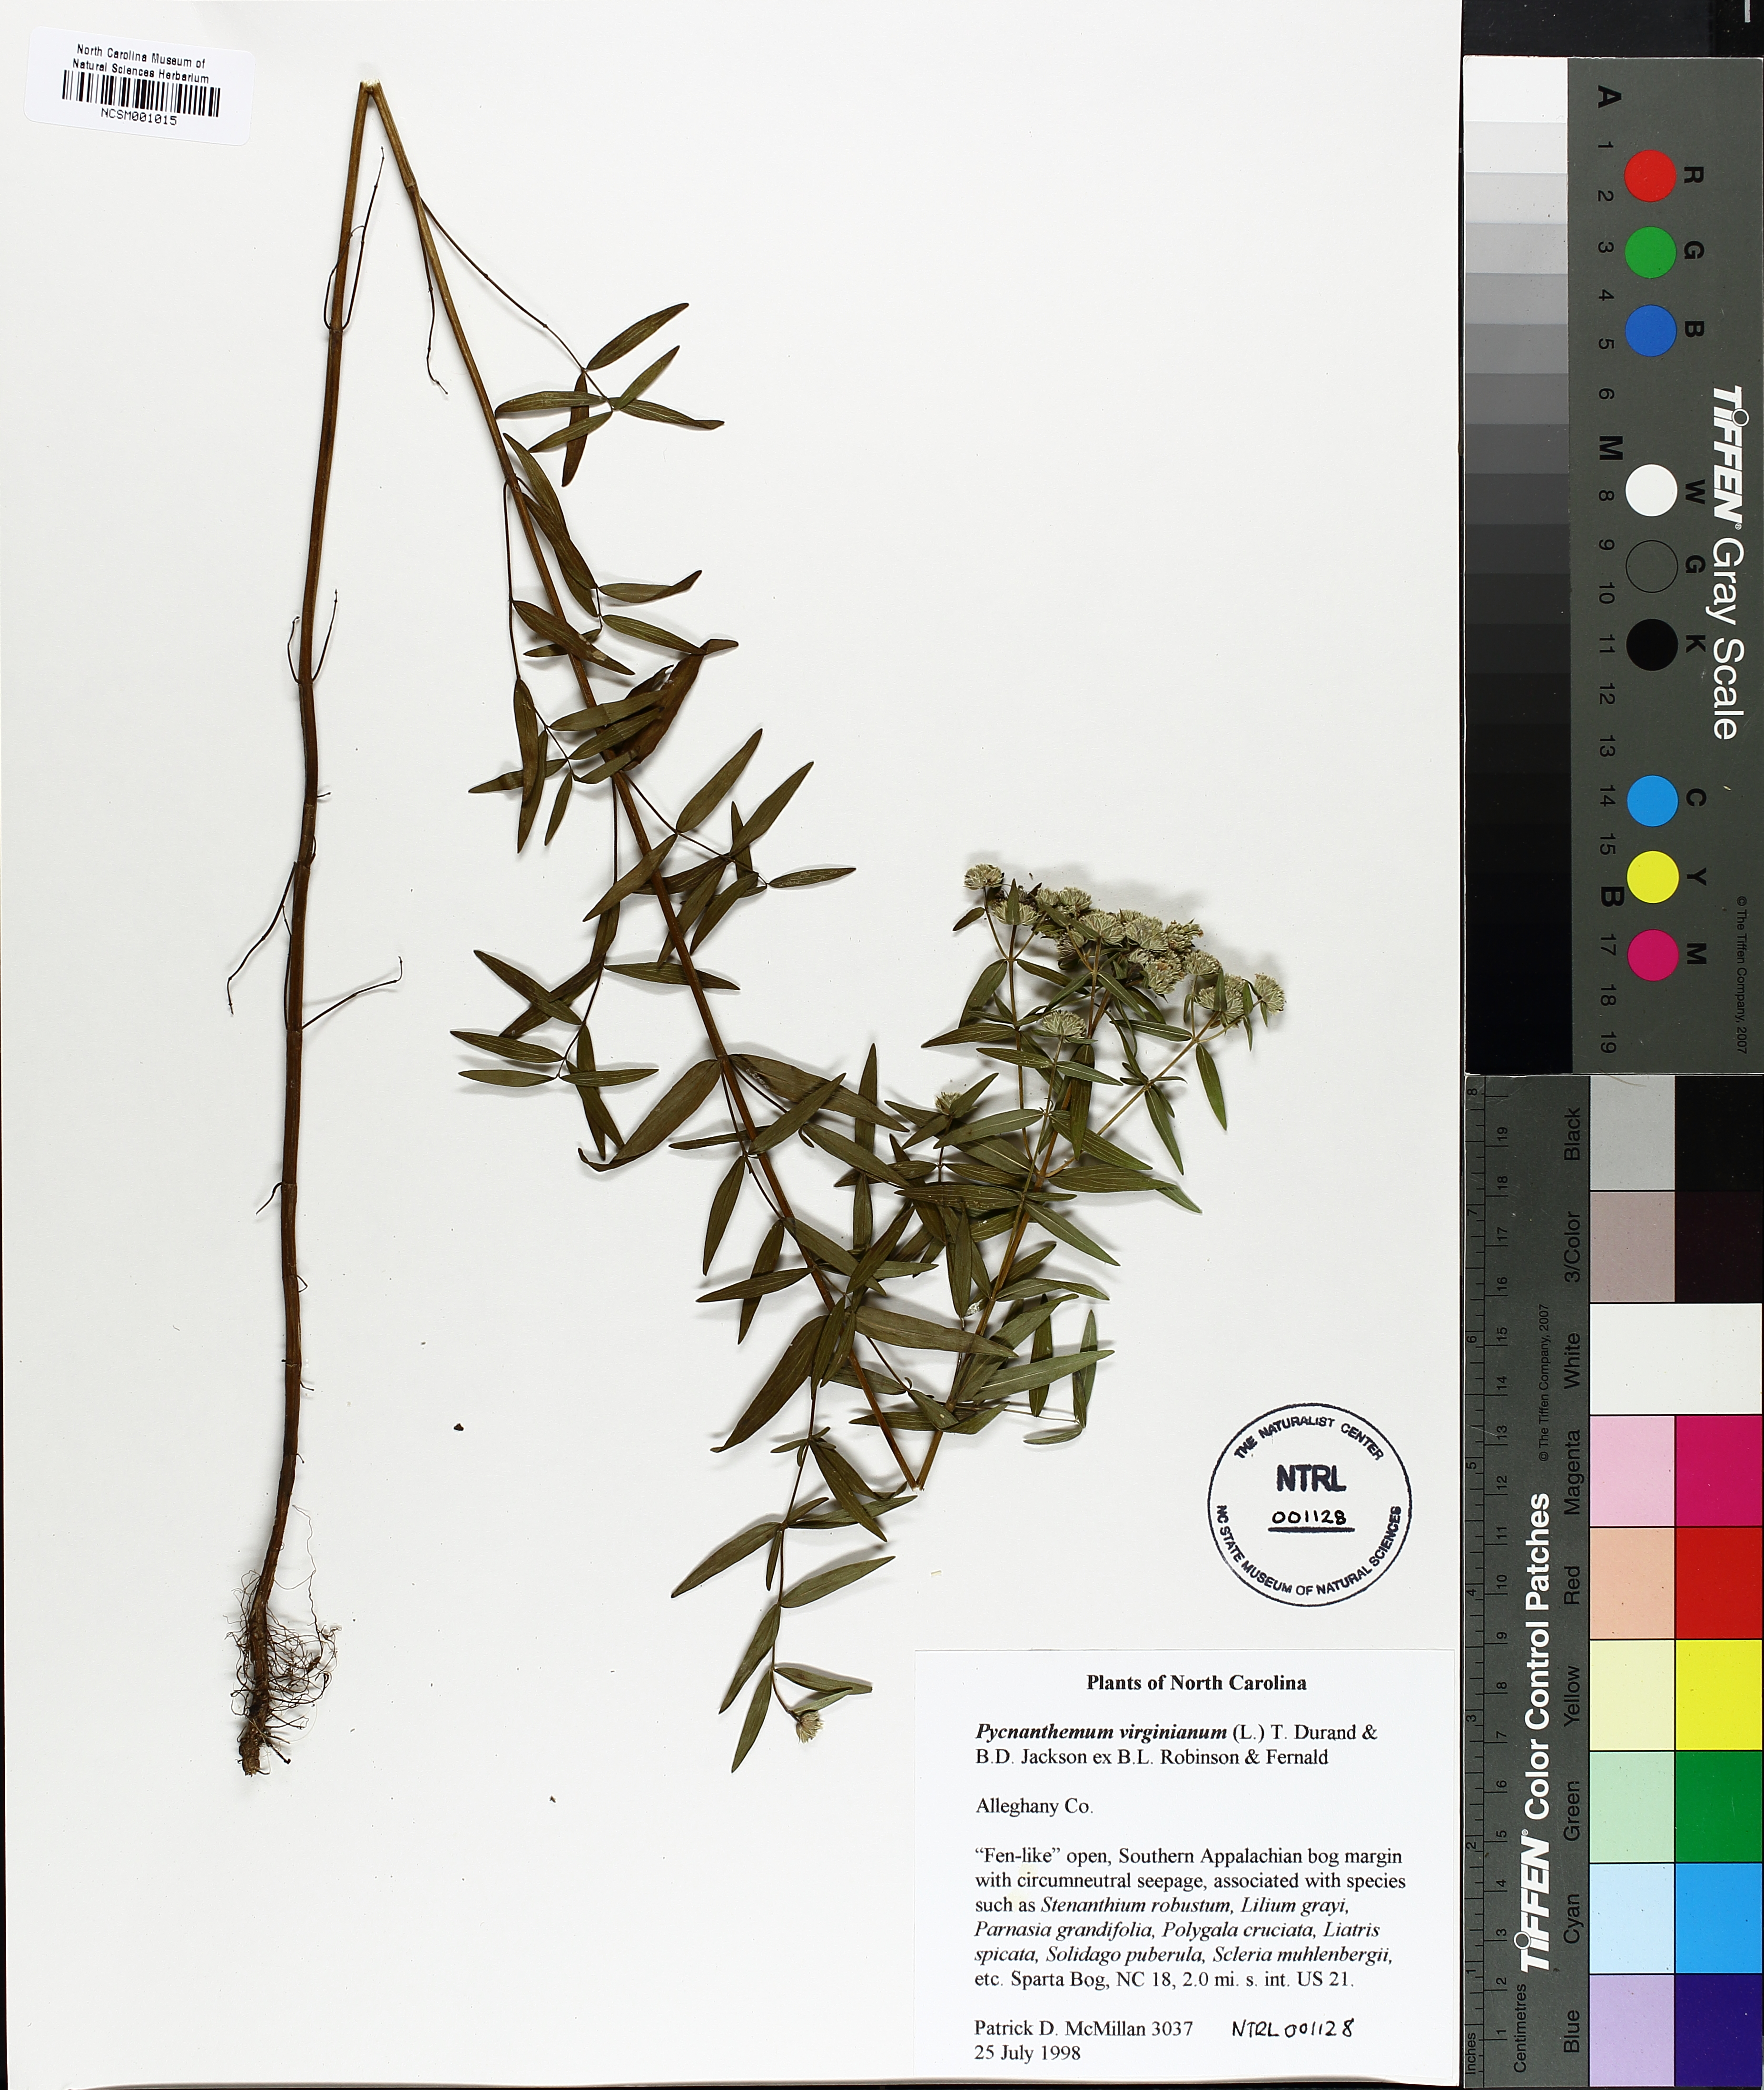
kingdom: Plantae
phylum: Tracheophyta
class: Magnoliopsida
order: Lamiales
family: Lamiaceae
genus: Pycnanthemum
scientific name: Pycnanthemum virginianum
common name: Virginia mountain-mint
